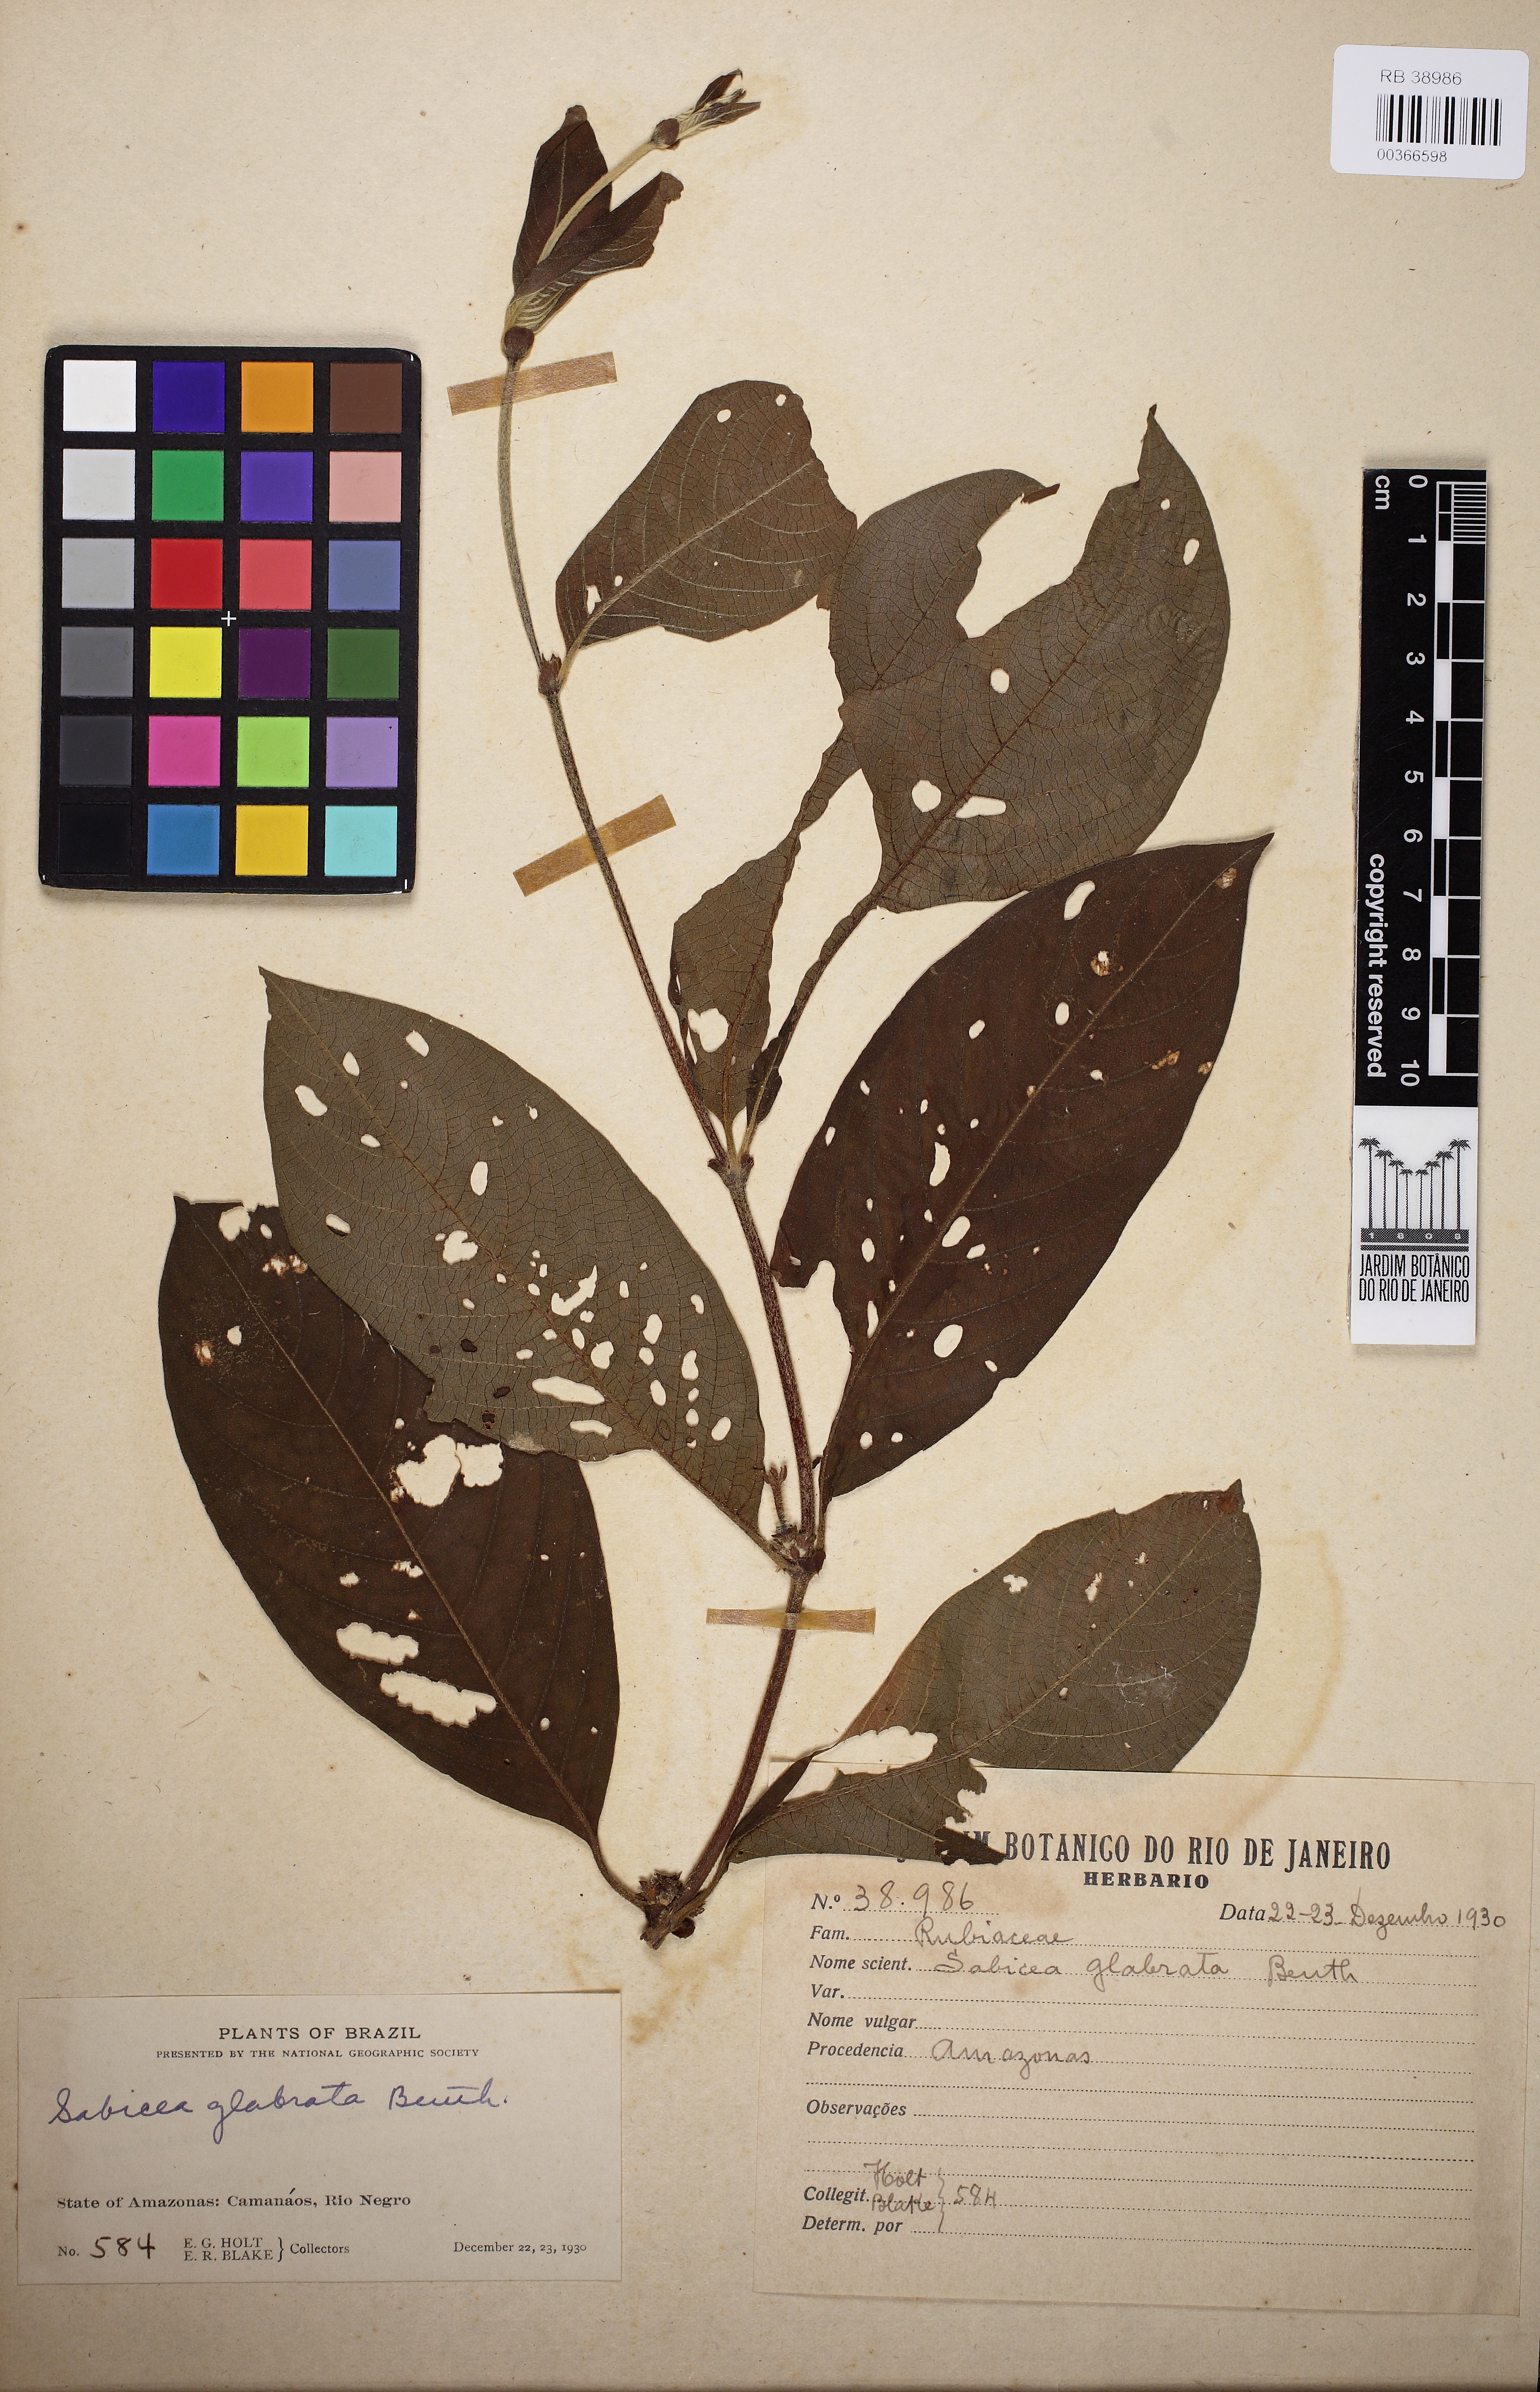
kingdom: Plantae
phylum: Tracheophyta
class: Magnoliopsida
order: Gentianales
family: Rubiaceae
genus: Sabicea
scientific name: Sabicea glabrescens
